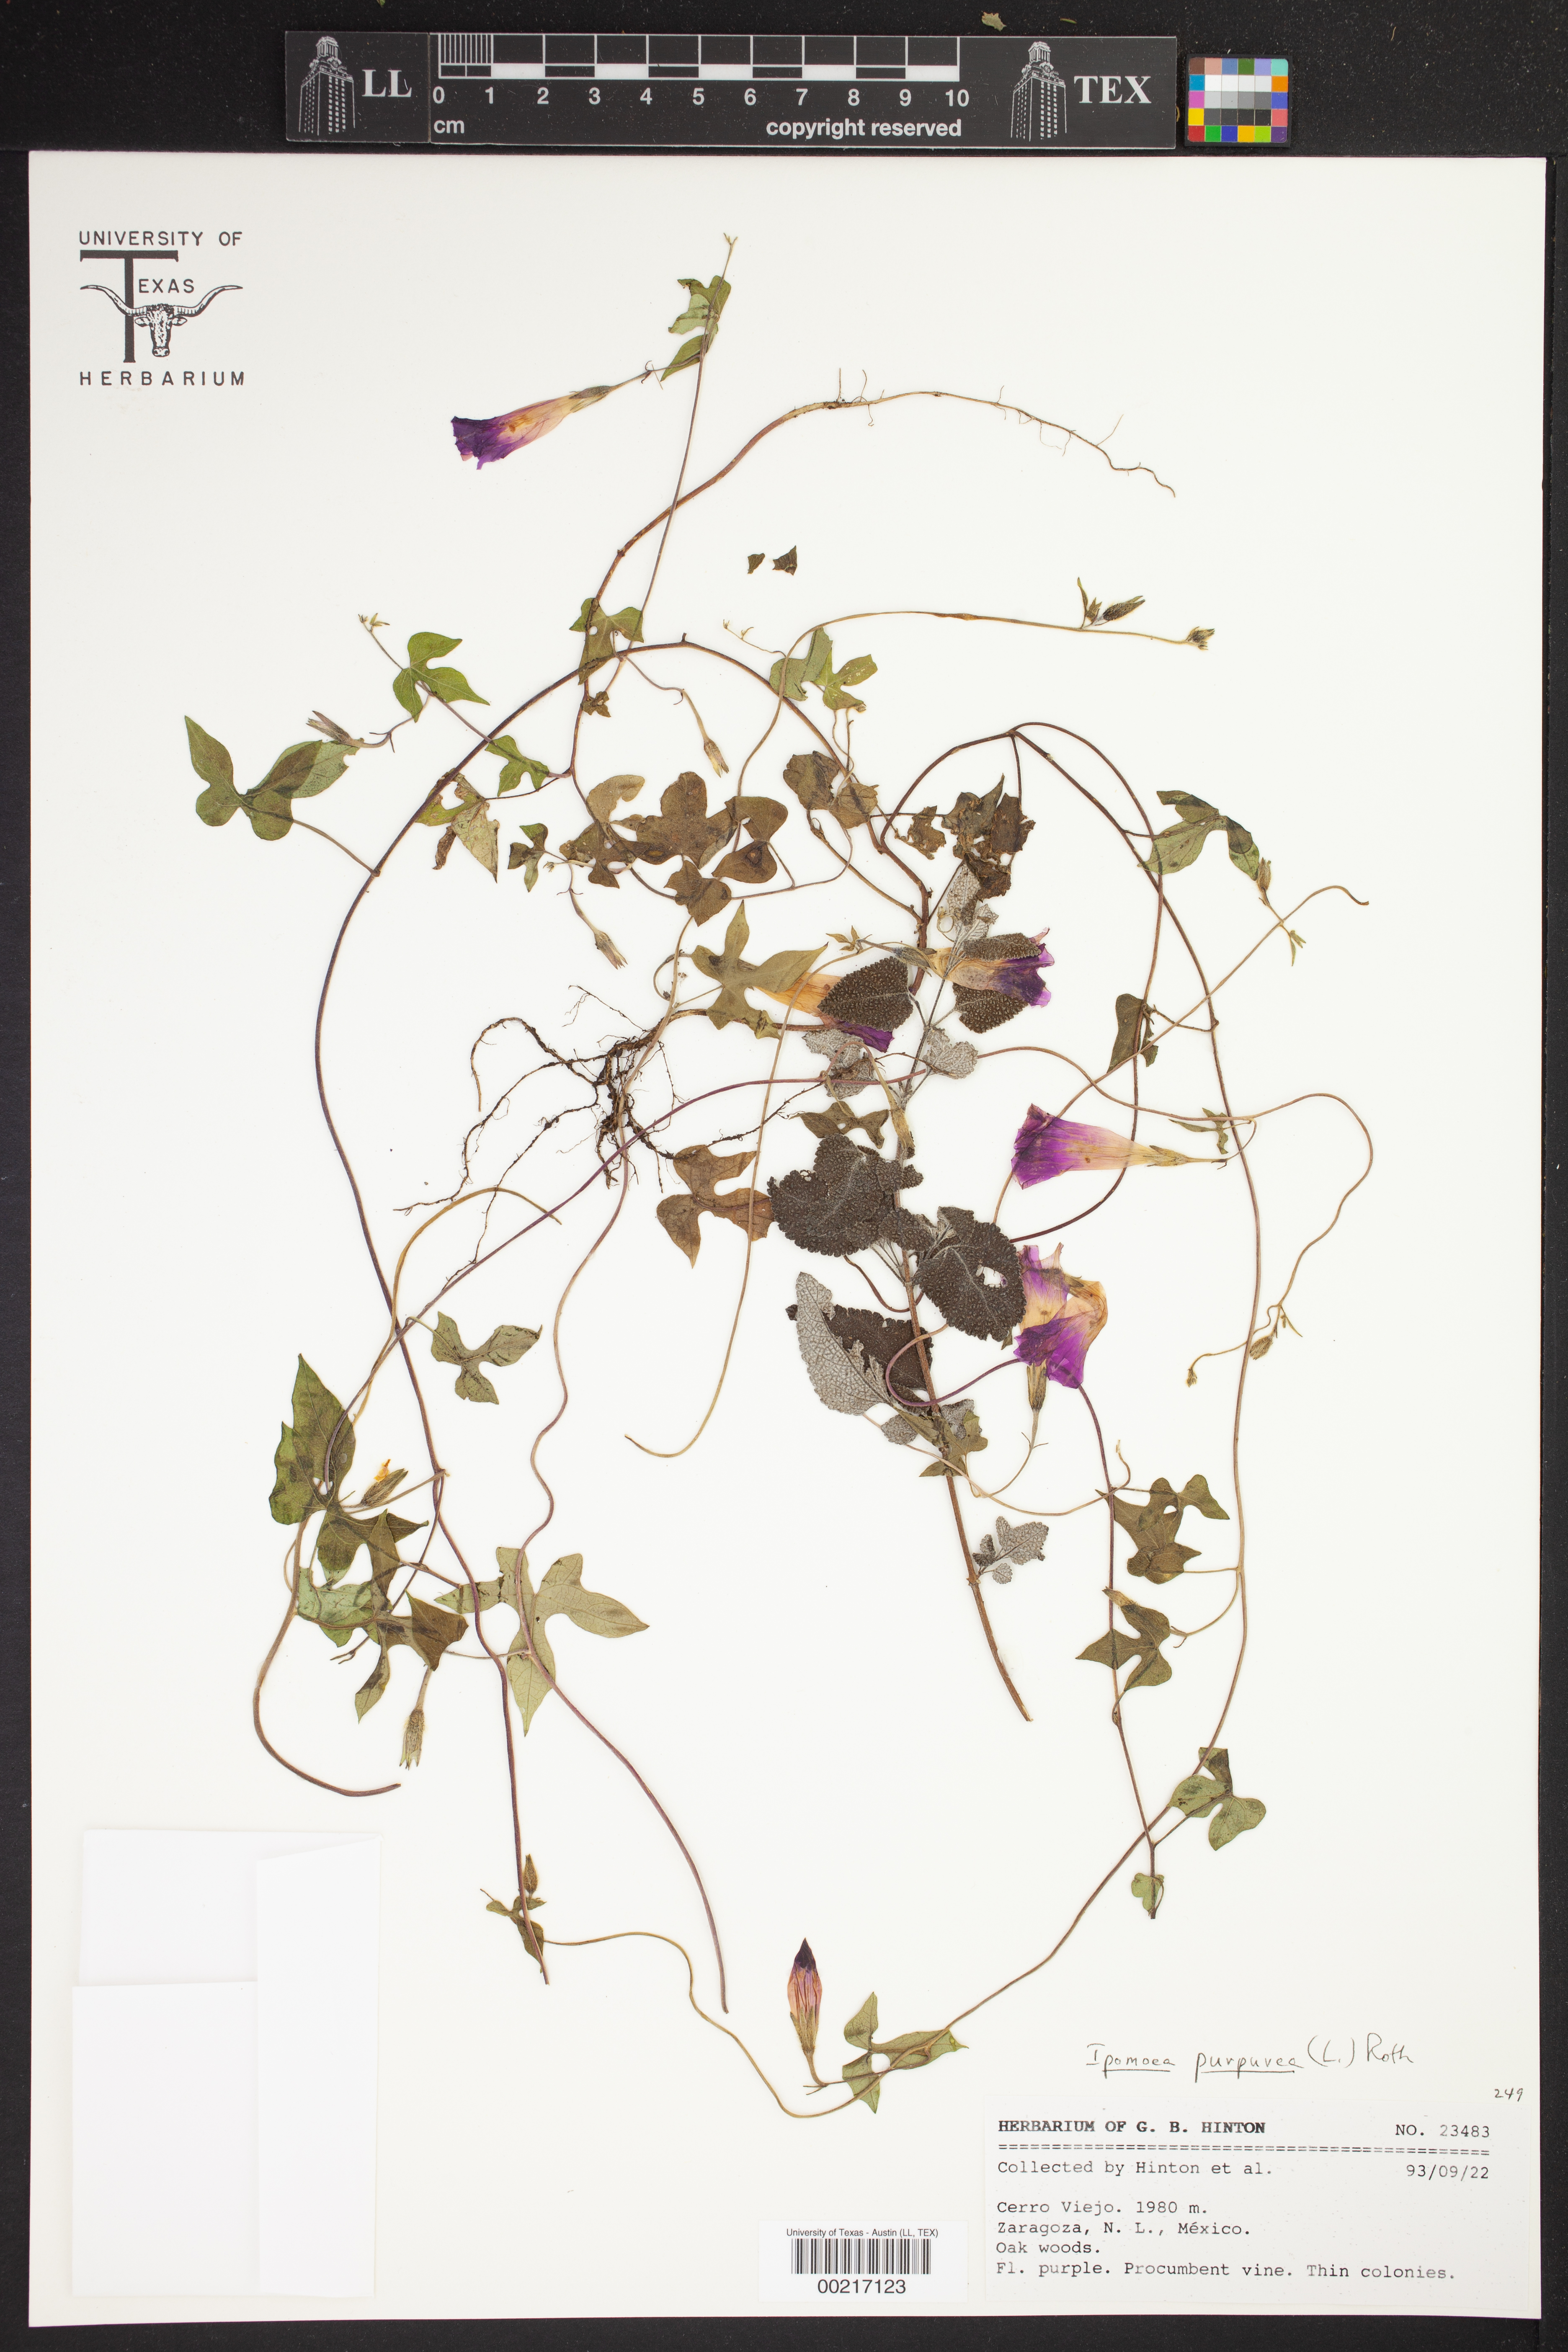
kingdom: Plantae
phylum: Tracheophyta
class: Magnoliopsida
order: Solanales
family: Convolvulaceae
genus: Ipomoea
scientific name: Ipomoea purpurea
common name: Common morning-glory
